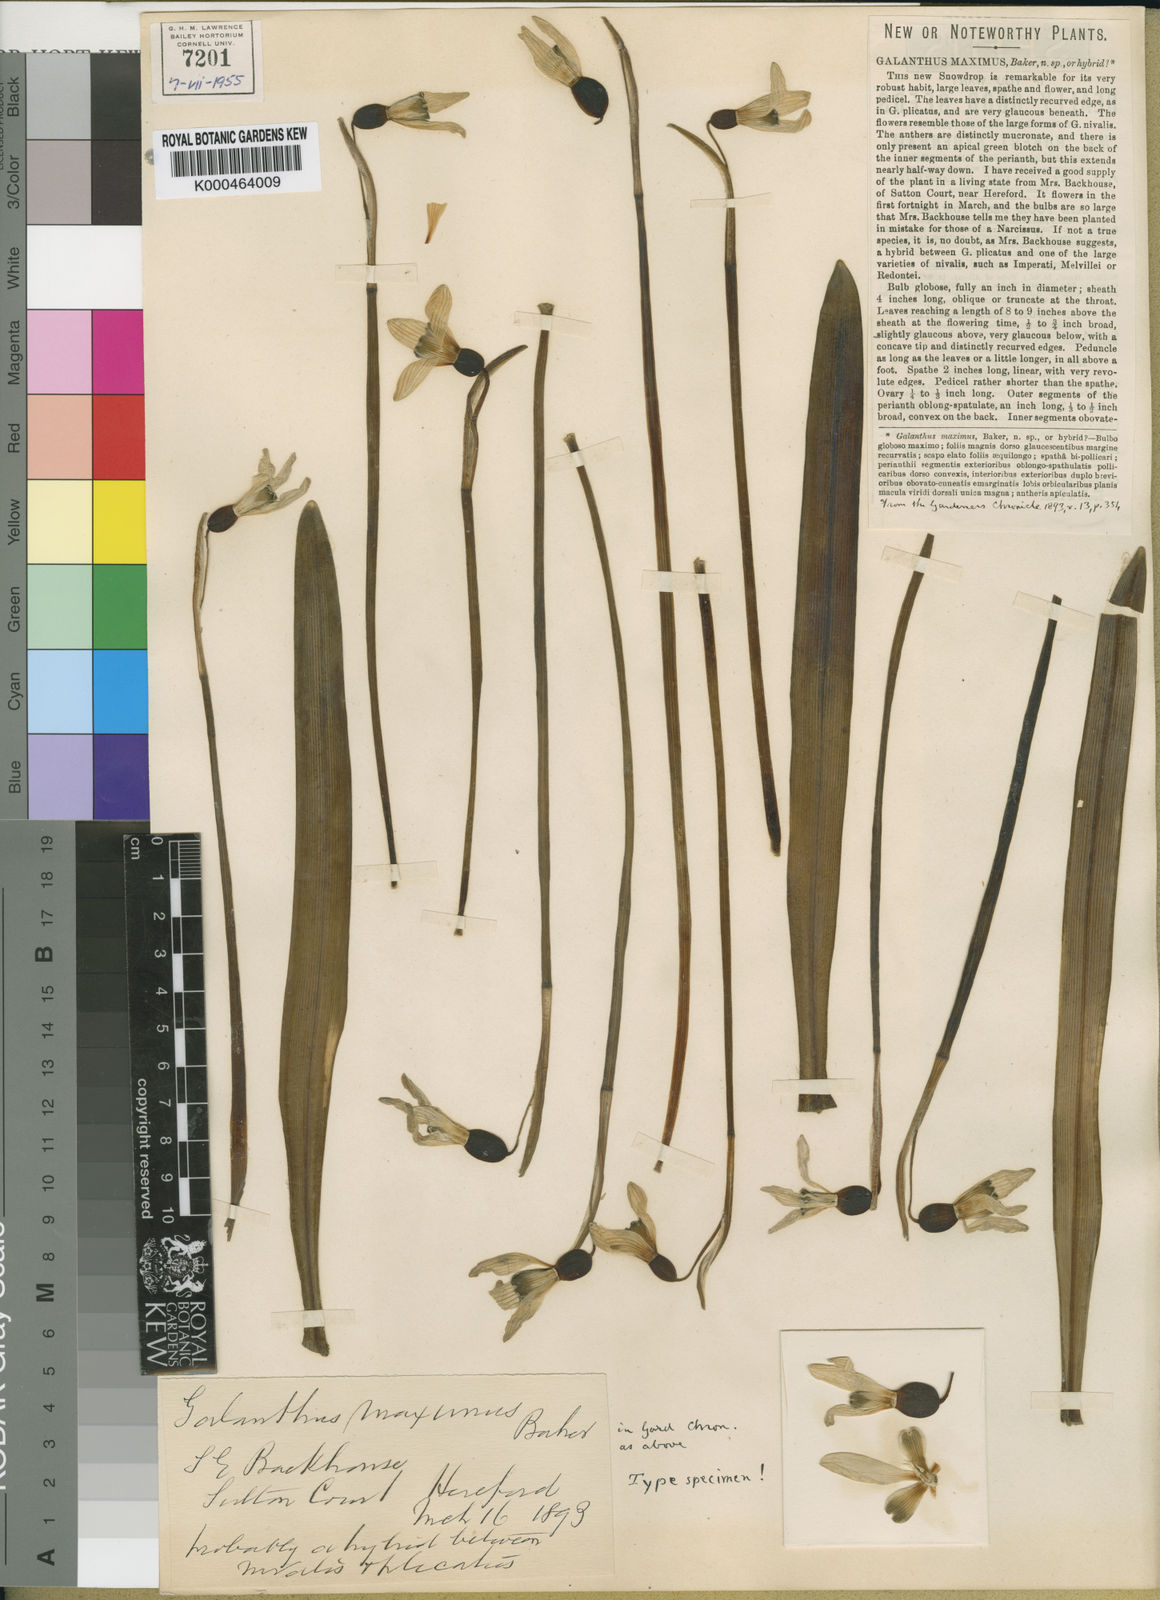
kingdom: Plantae
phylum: Tracheophyta
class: Liliopsida
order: Asparagales
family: Amaryllidaceae
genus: Galanthus
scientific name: Galanthus elwesii
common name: Greater snowdrop
